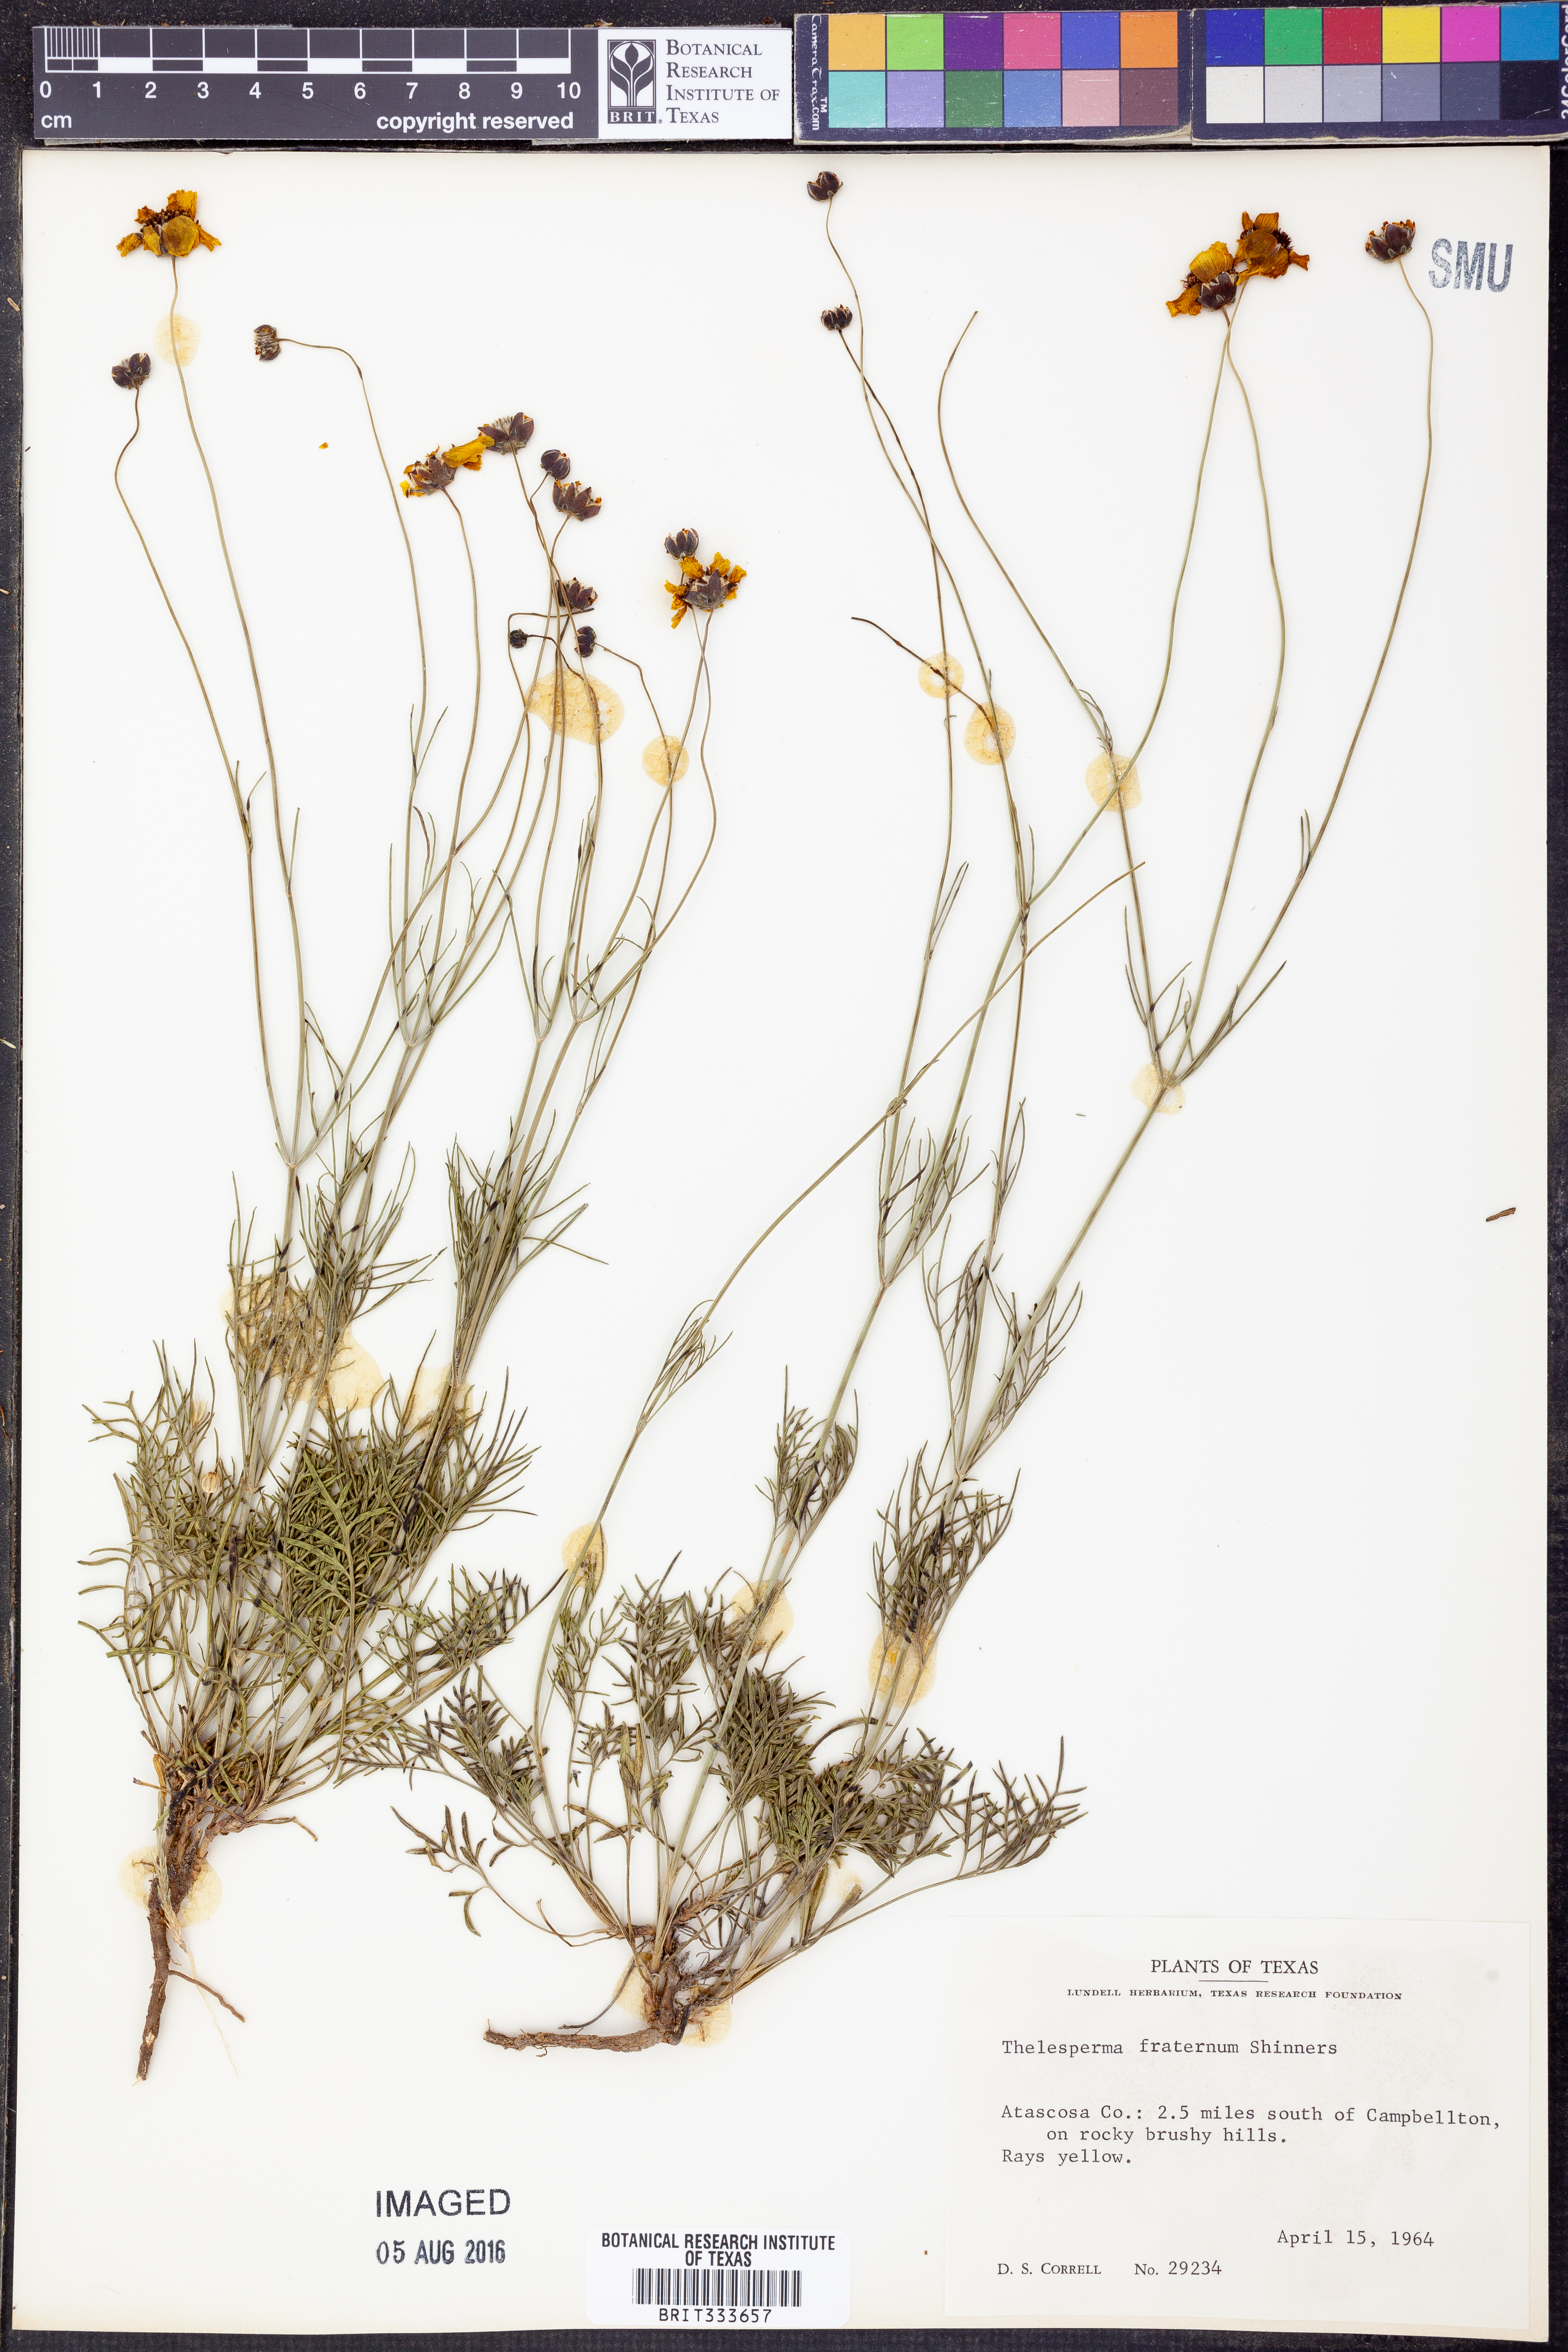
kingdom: Plantae
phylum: Tracheophyta
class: Magnoliopsida
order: Asterales
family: Asteraceae
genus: Thelesperma
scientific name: Thelesperma ambiguum
